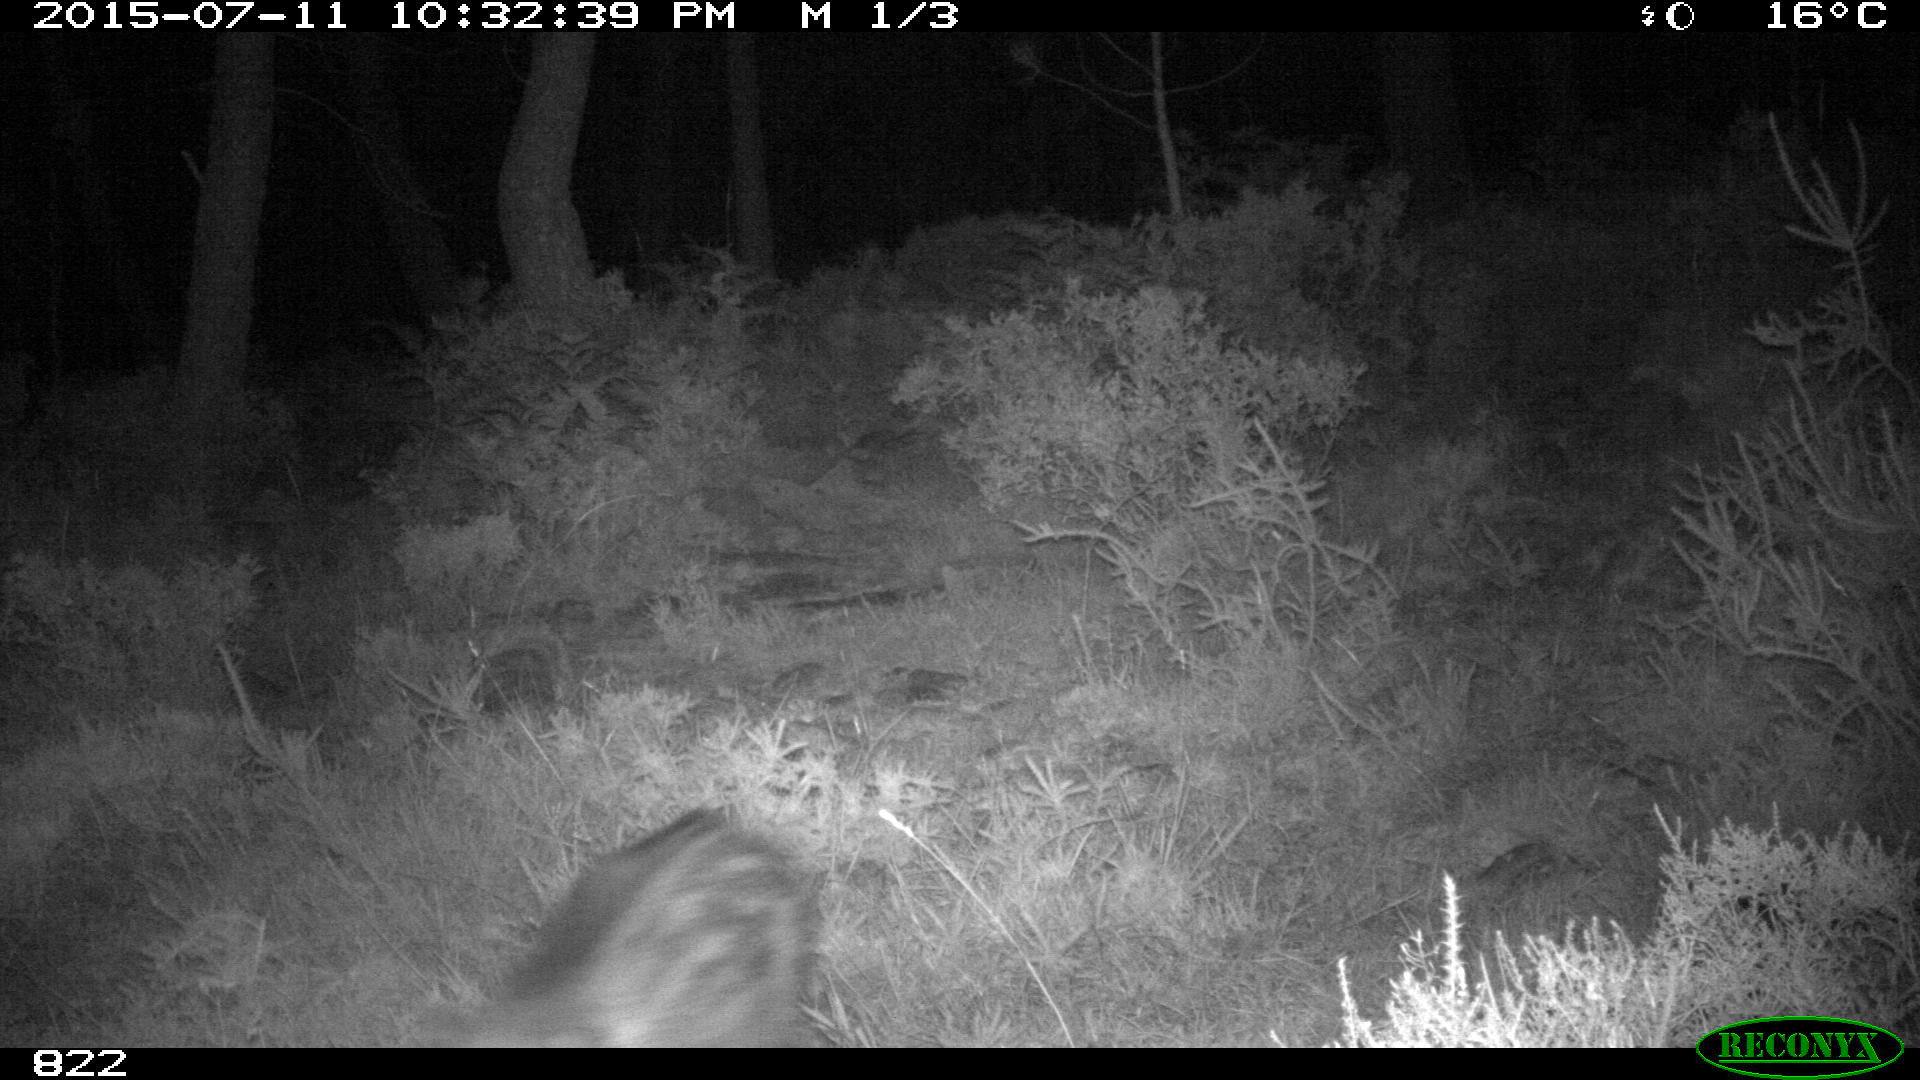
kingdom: Animalia
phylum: Chordata
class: Mammalia
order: Artiodactyla
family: Suidae
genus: Sus
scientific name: Sus scrofa
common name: Wild boar
